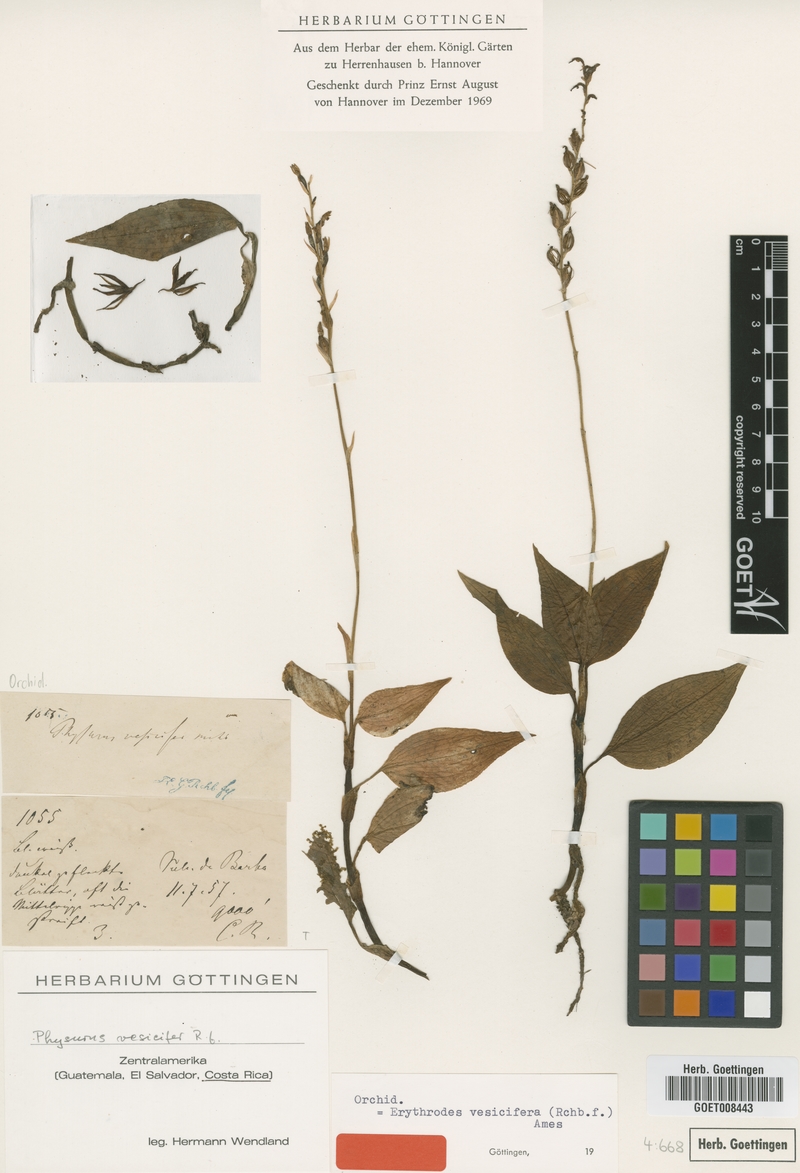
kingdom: Plantae
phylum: Tracheophyta
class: Liliopsida
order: Asparagales
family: Orchidaceae
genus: Microchilus
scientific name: Microchilus vesicifer
